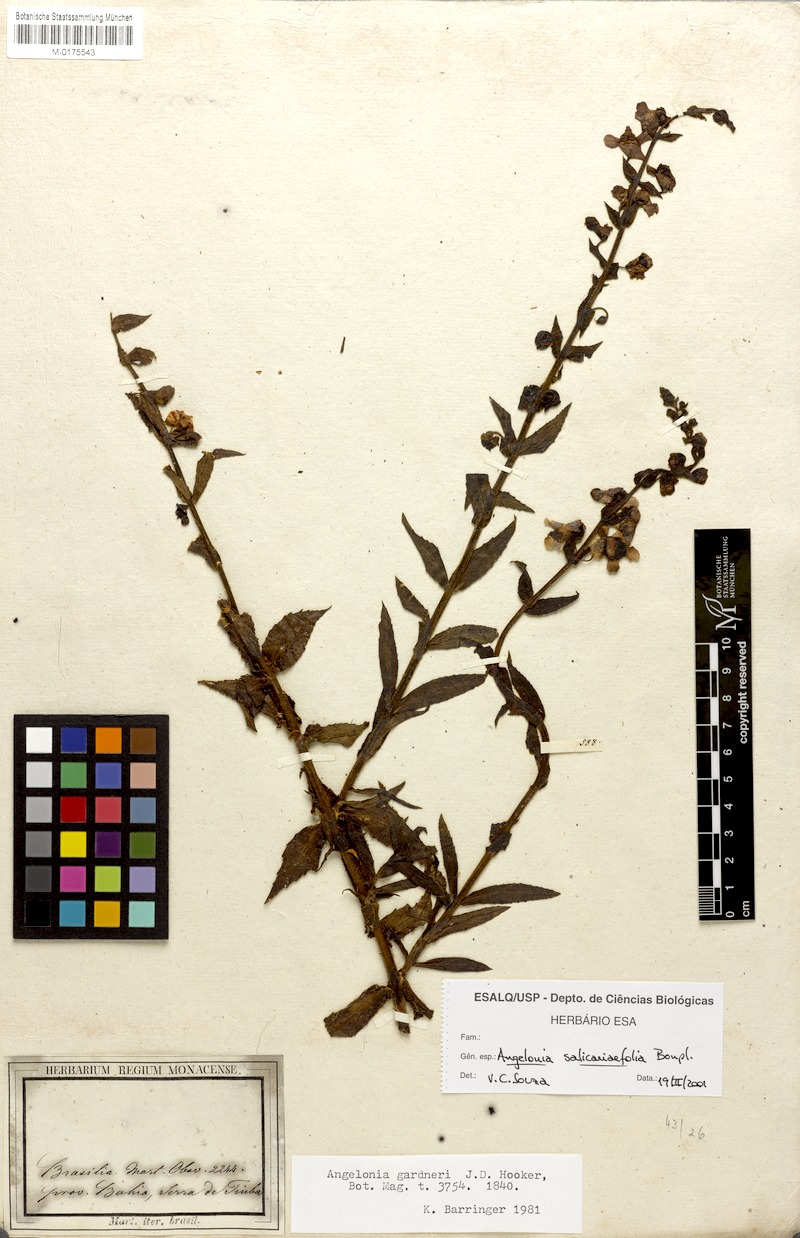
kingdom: Plantae
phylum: Tracheophyta
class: Magnoliopsida
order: Lamiales
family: Plantaginaceae
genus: Angelonia
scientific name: Angelonia salicariifolia
